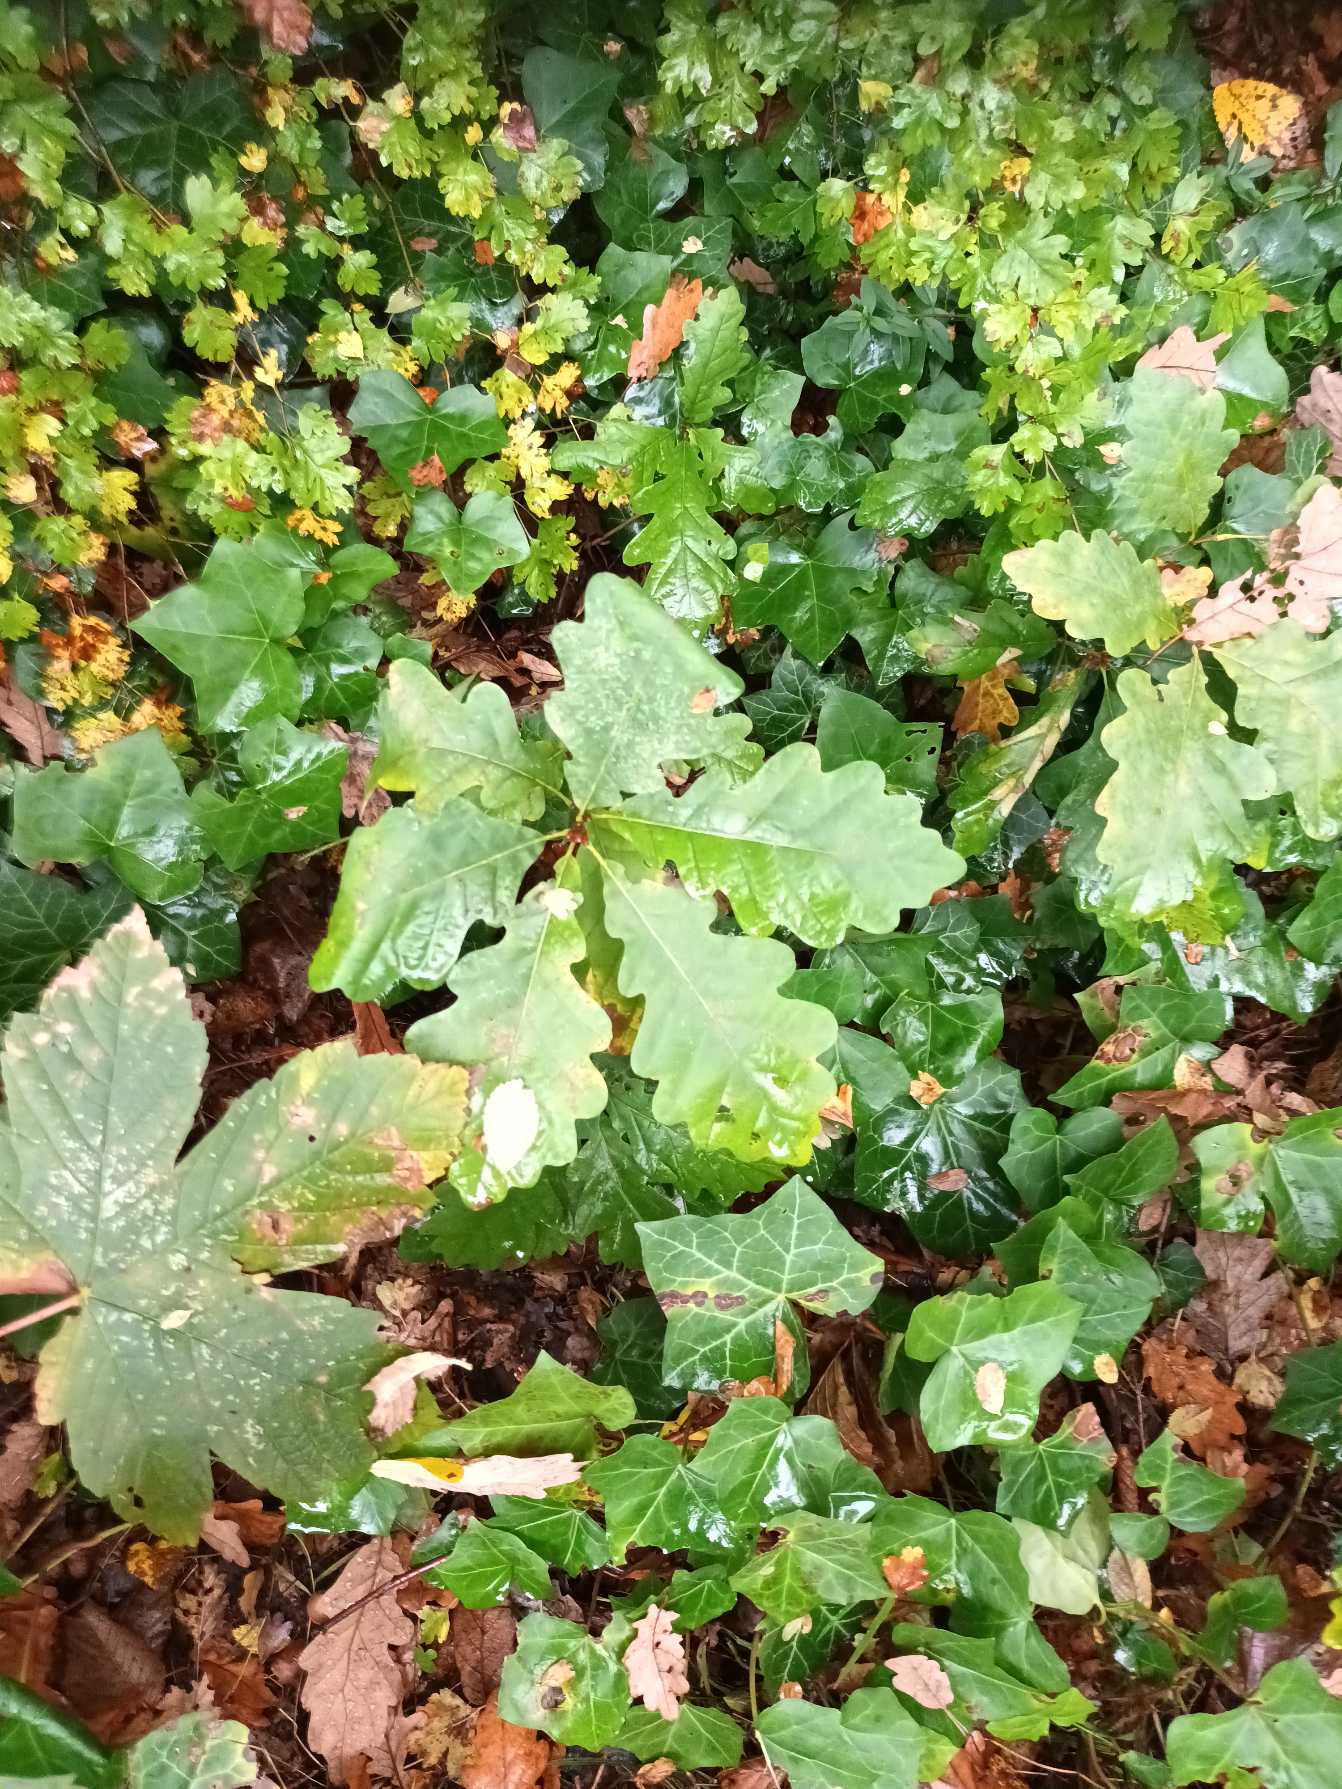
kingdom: Plantae
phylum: Tracheophyta
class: Magnoliopsida
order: Fagales
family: Fagaceae
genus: Quercus
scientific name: Quercus robur
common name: Stilk-eg/almindelig eg
